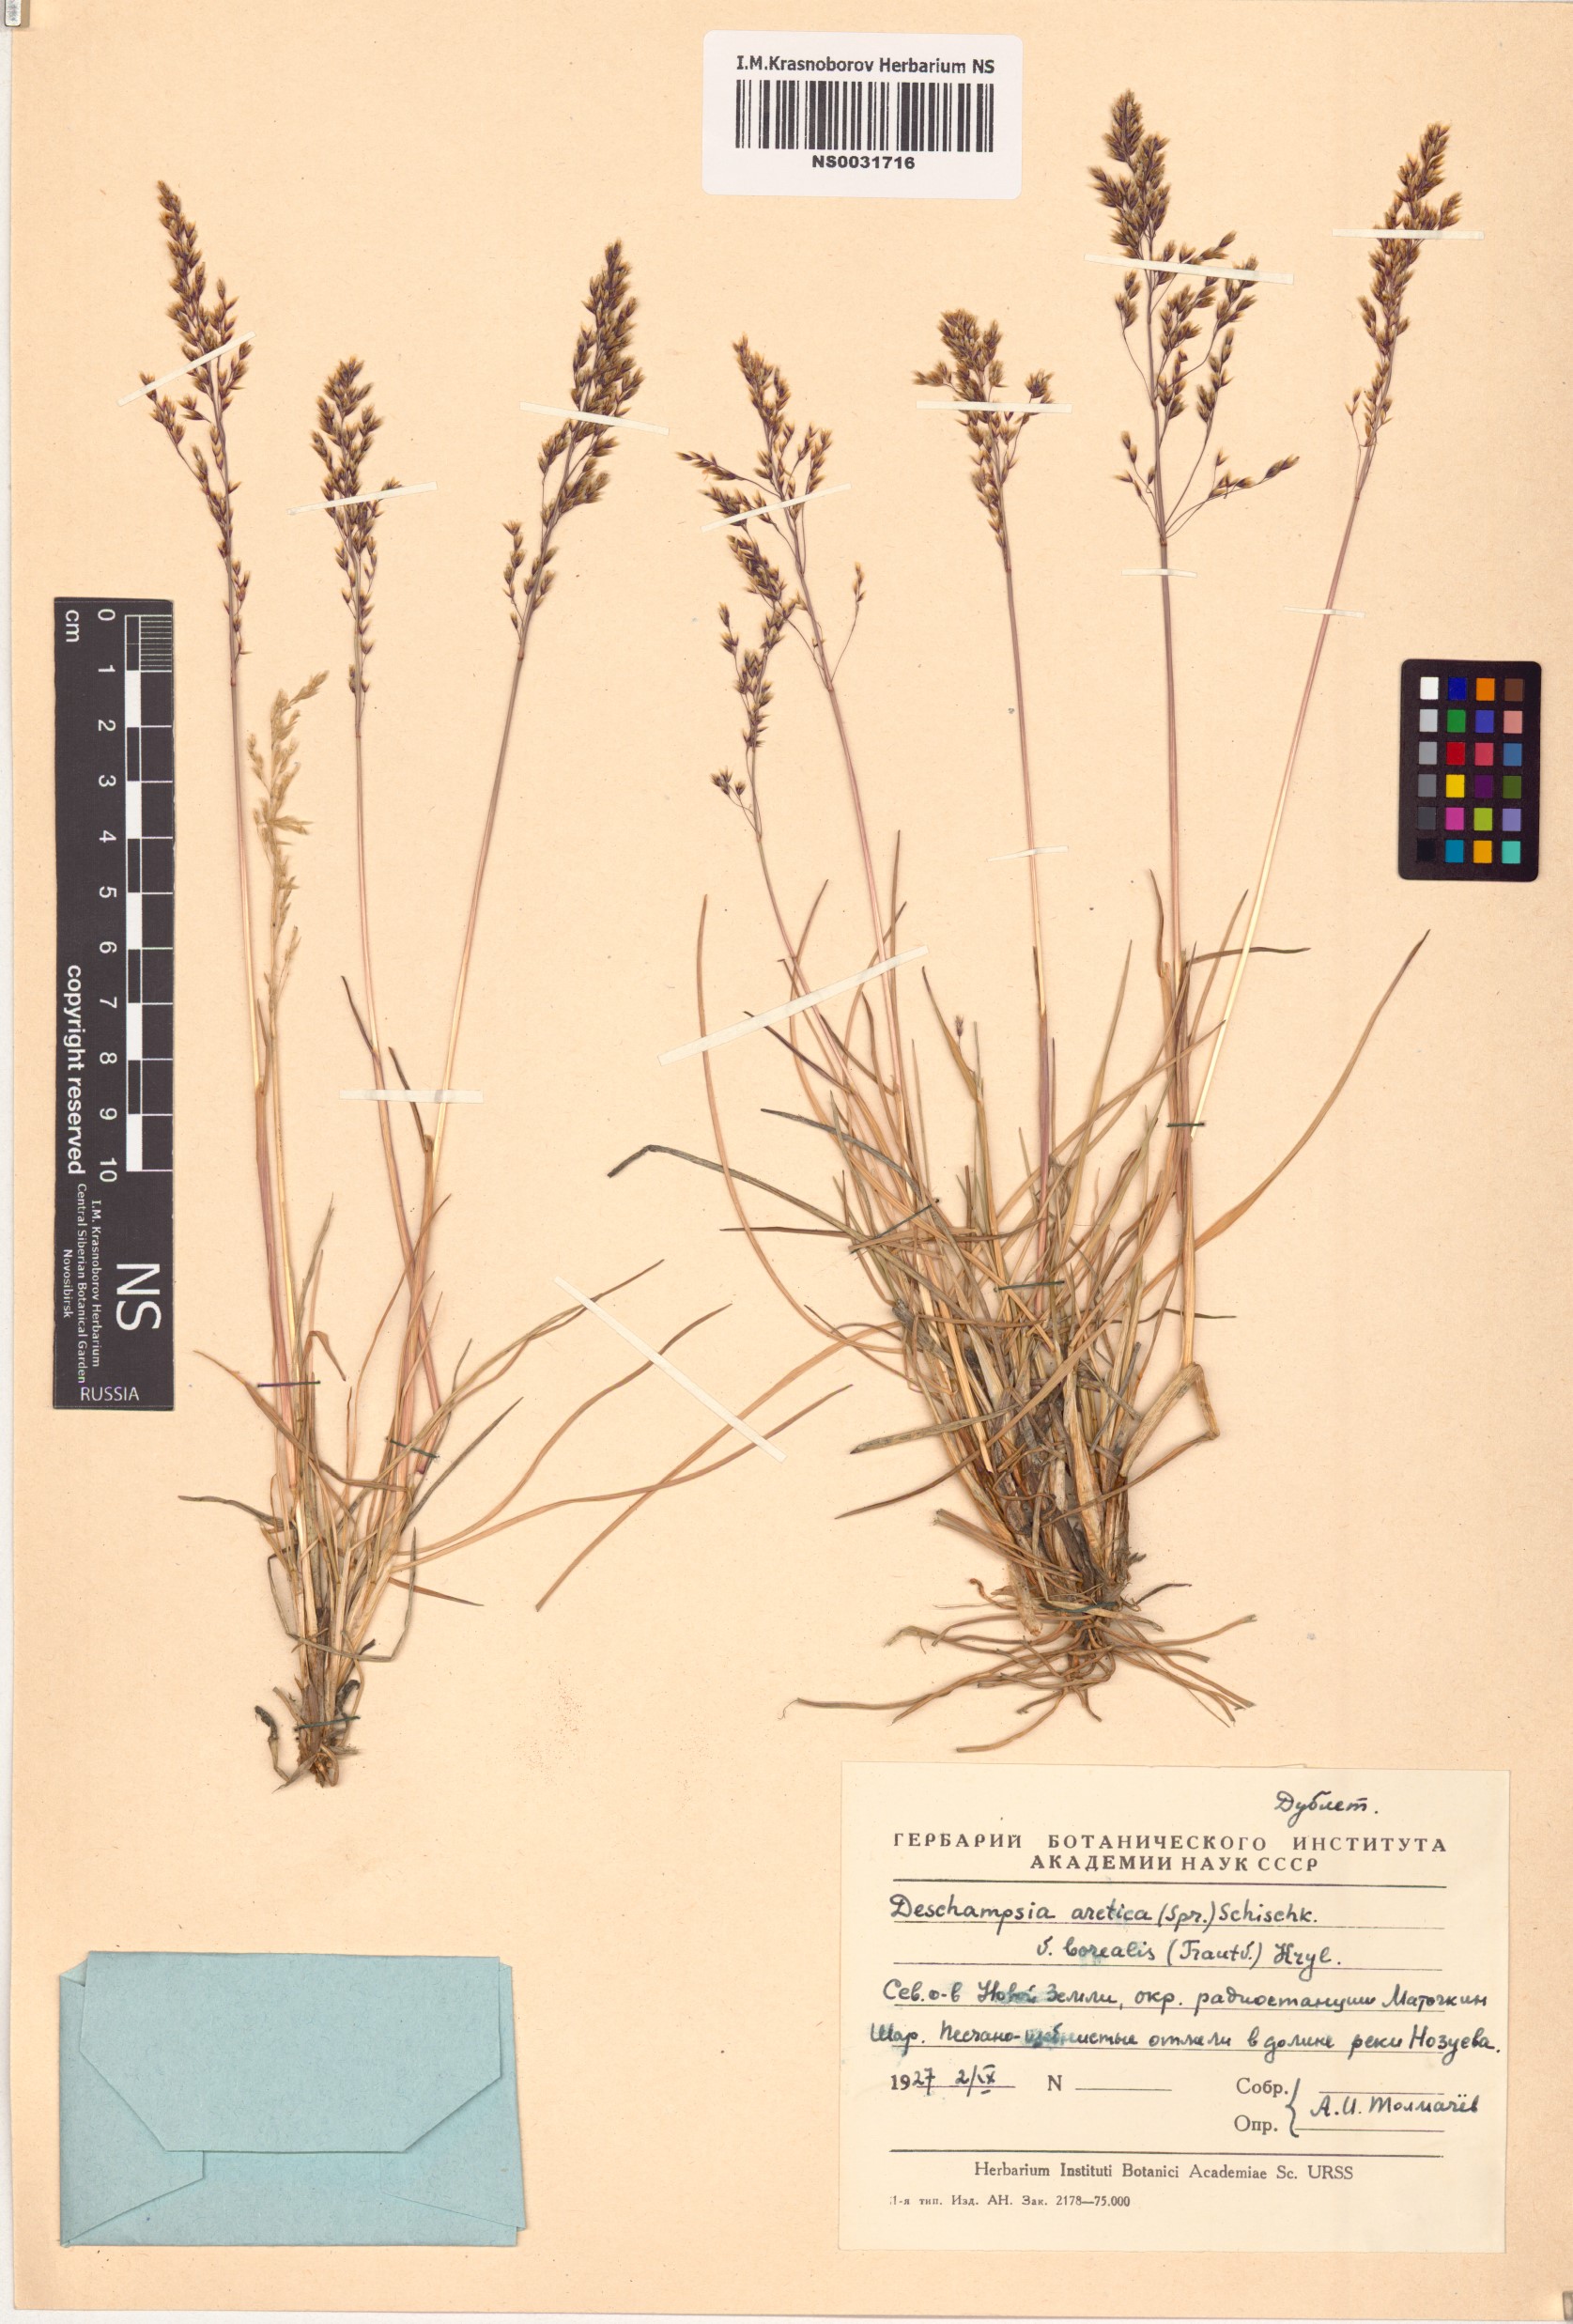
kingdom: Plantae
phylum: Tracheophyta
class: Liliopsida
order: Poales
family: Poaceae
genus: Deschampsia
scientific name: Deschampsia cespitosa
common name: Tufted hair-grass
